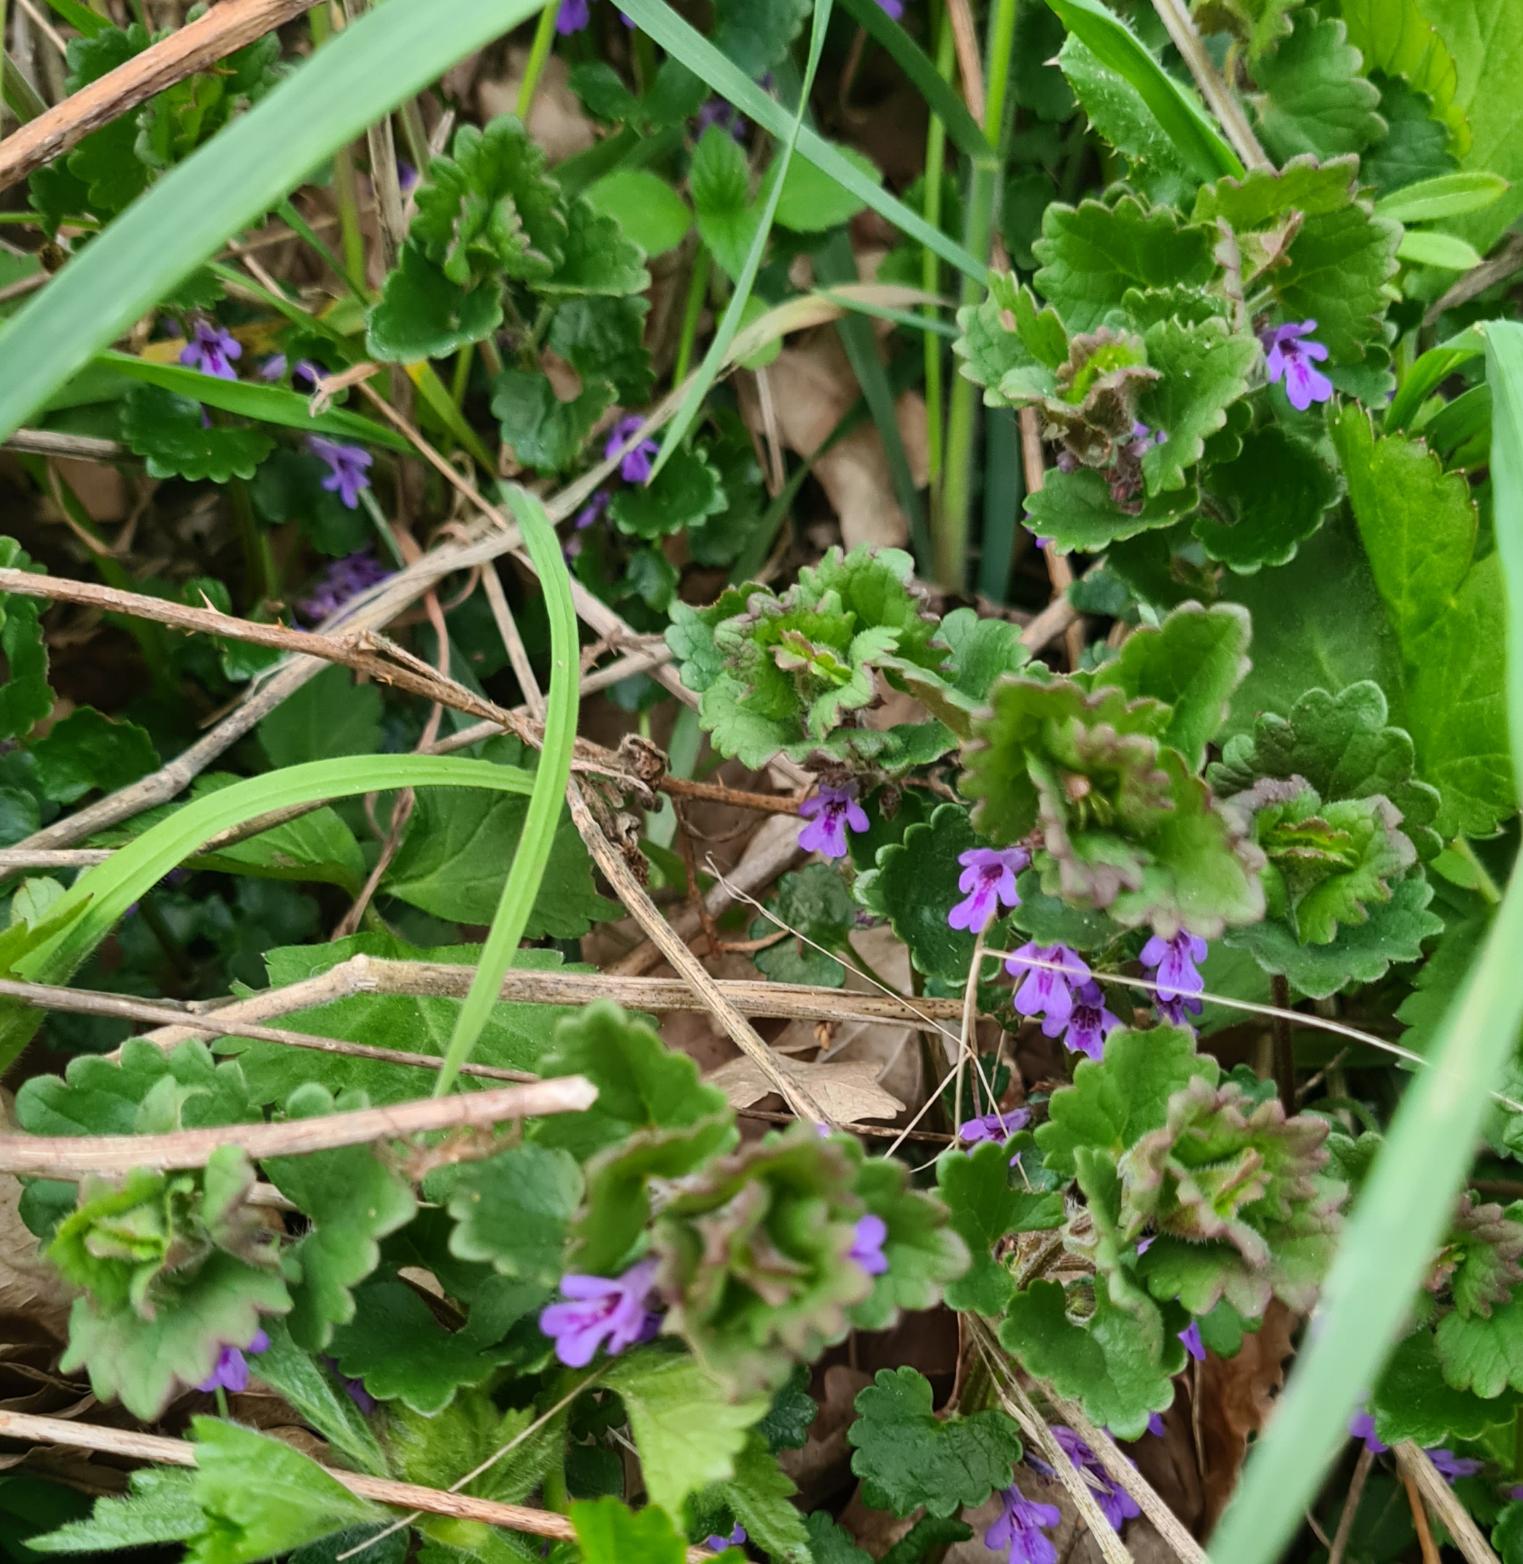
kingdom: Plantae
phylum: Tracheophyta
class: Magnoliopsida
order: Lamiales
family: Lamiaceae
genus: Glechoma
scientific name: Glechoma hederacea
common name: Korsknap
